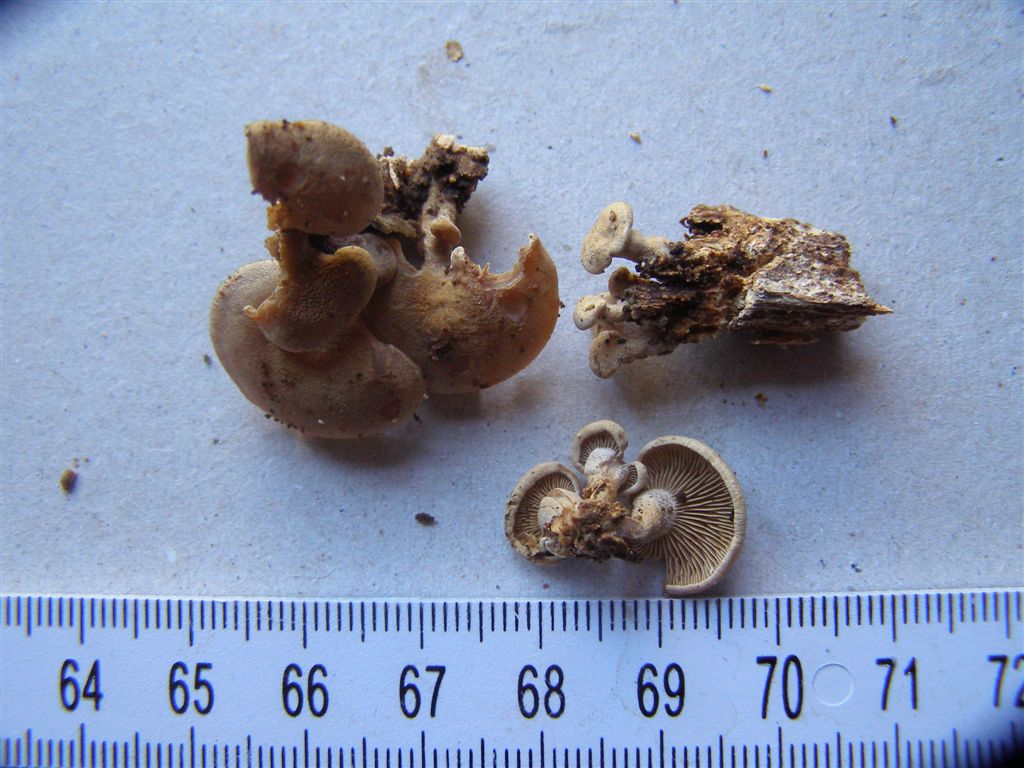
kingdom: Fungi
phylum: Basidiomycota
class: Agaricomycetes
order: Agaricales
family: Mycenaceae
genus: Panellus
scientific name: Panellus stipticus
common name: kliddet epaulethat
